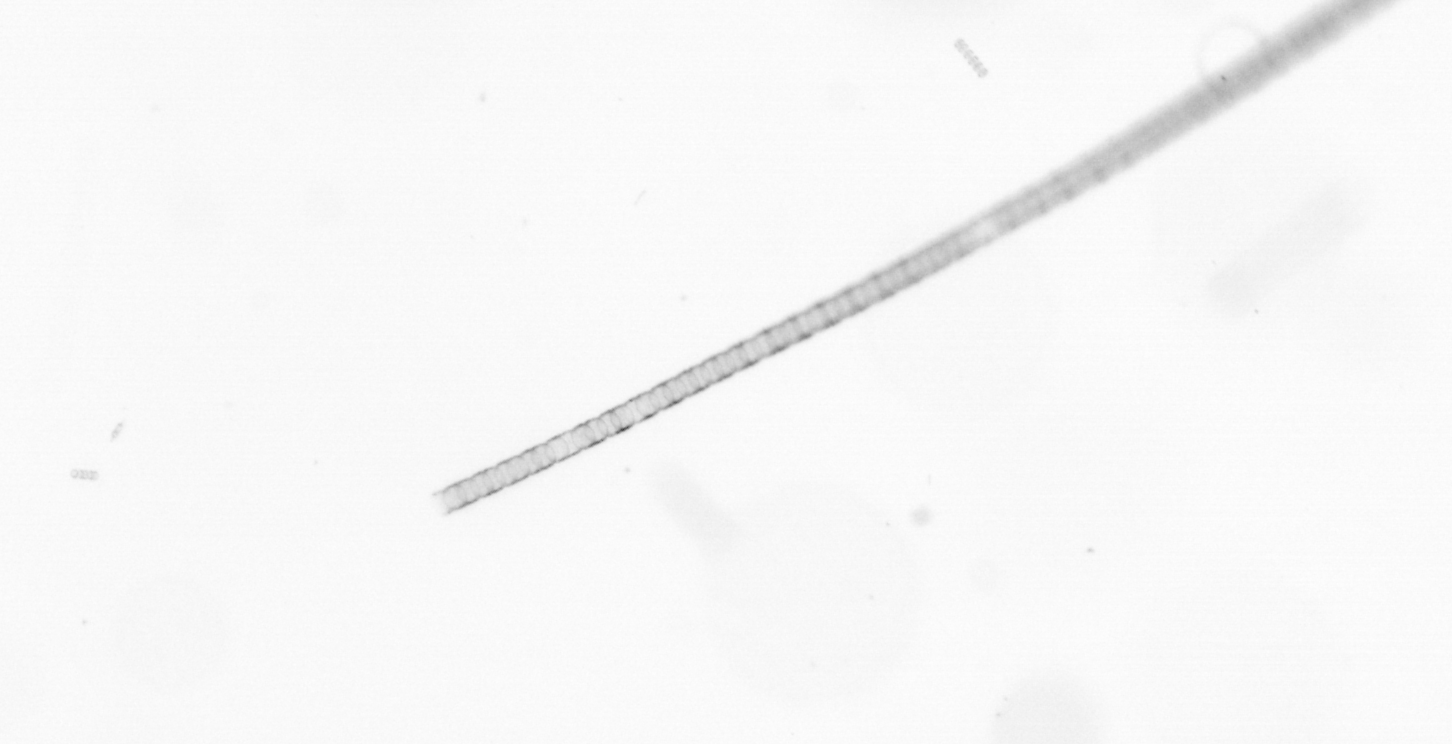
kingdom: Chromista
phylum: Ochrophyta
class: Bacillariophyceae
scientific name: Bacillariophyceae
